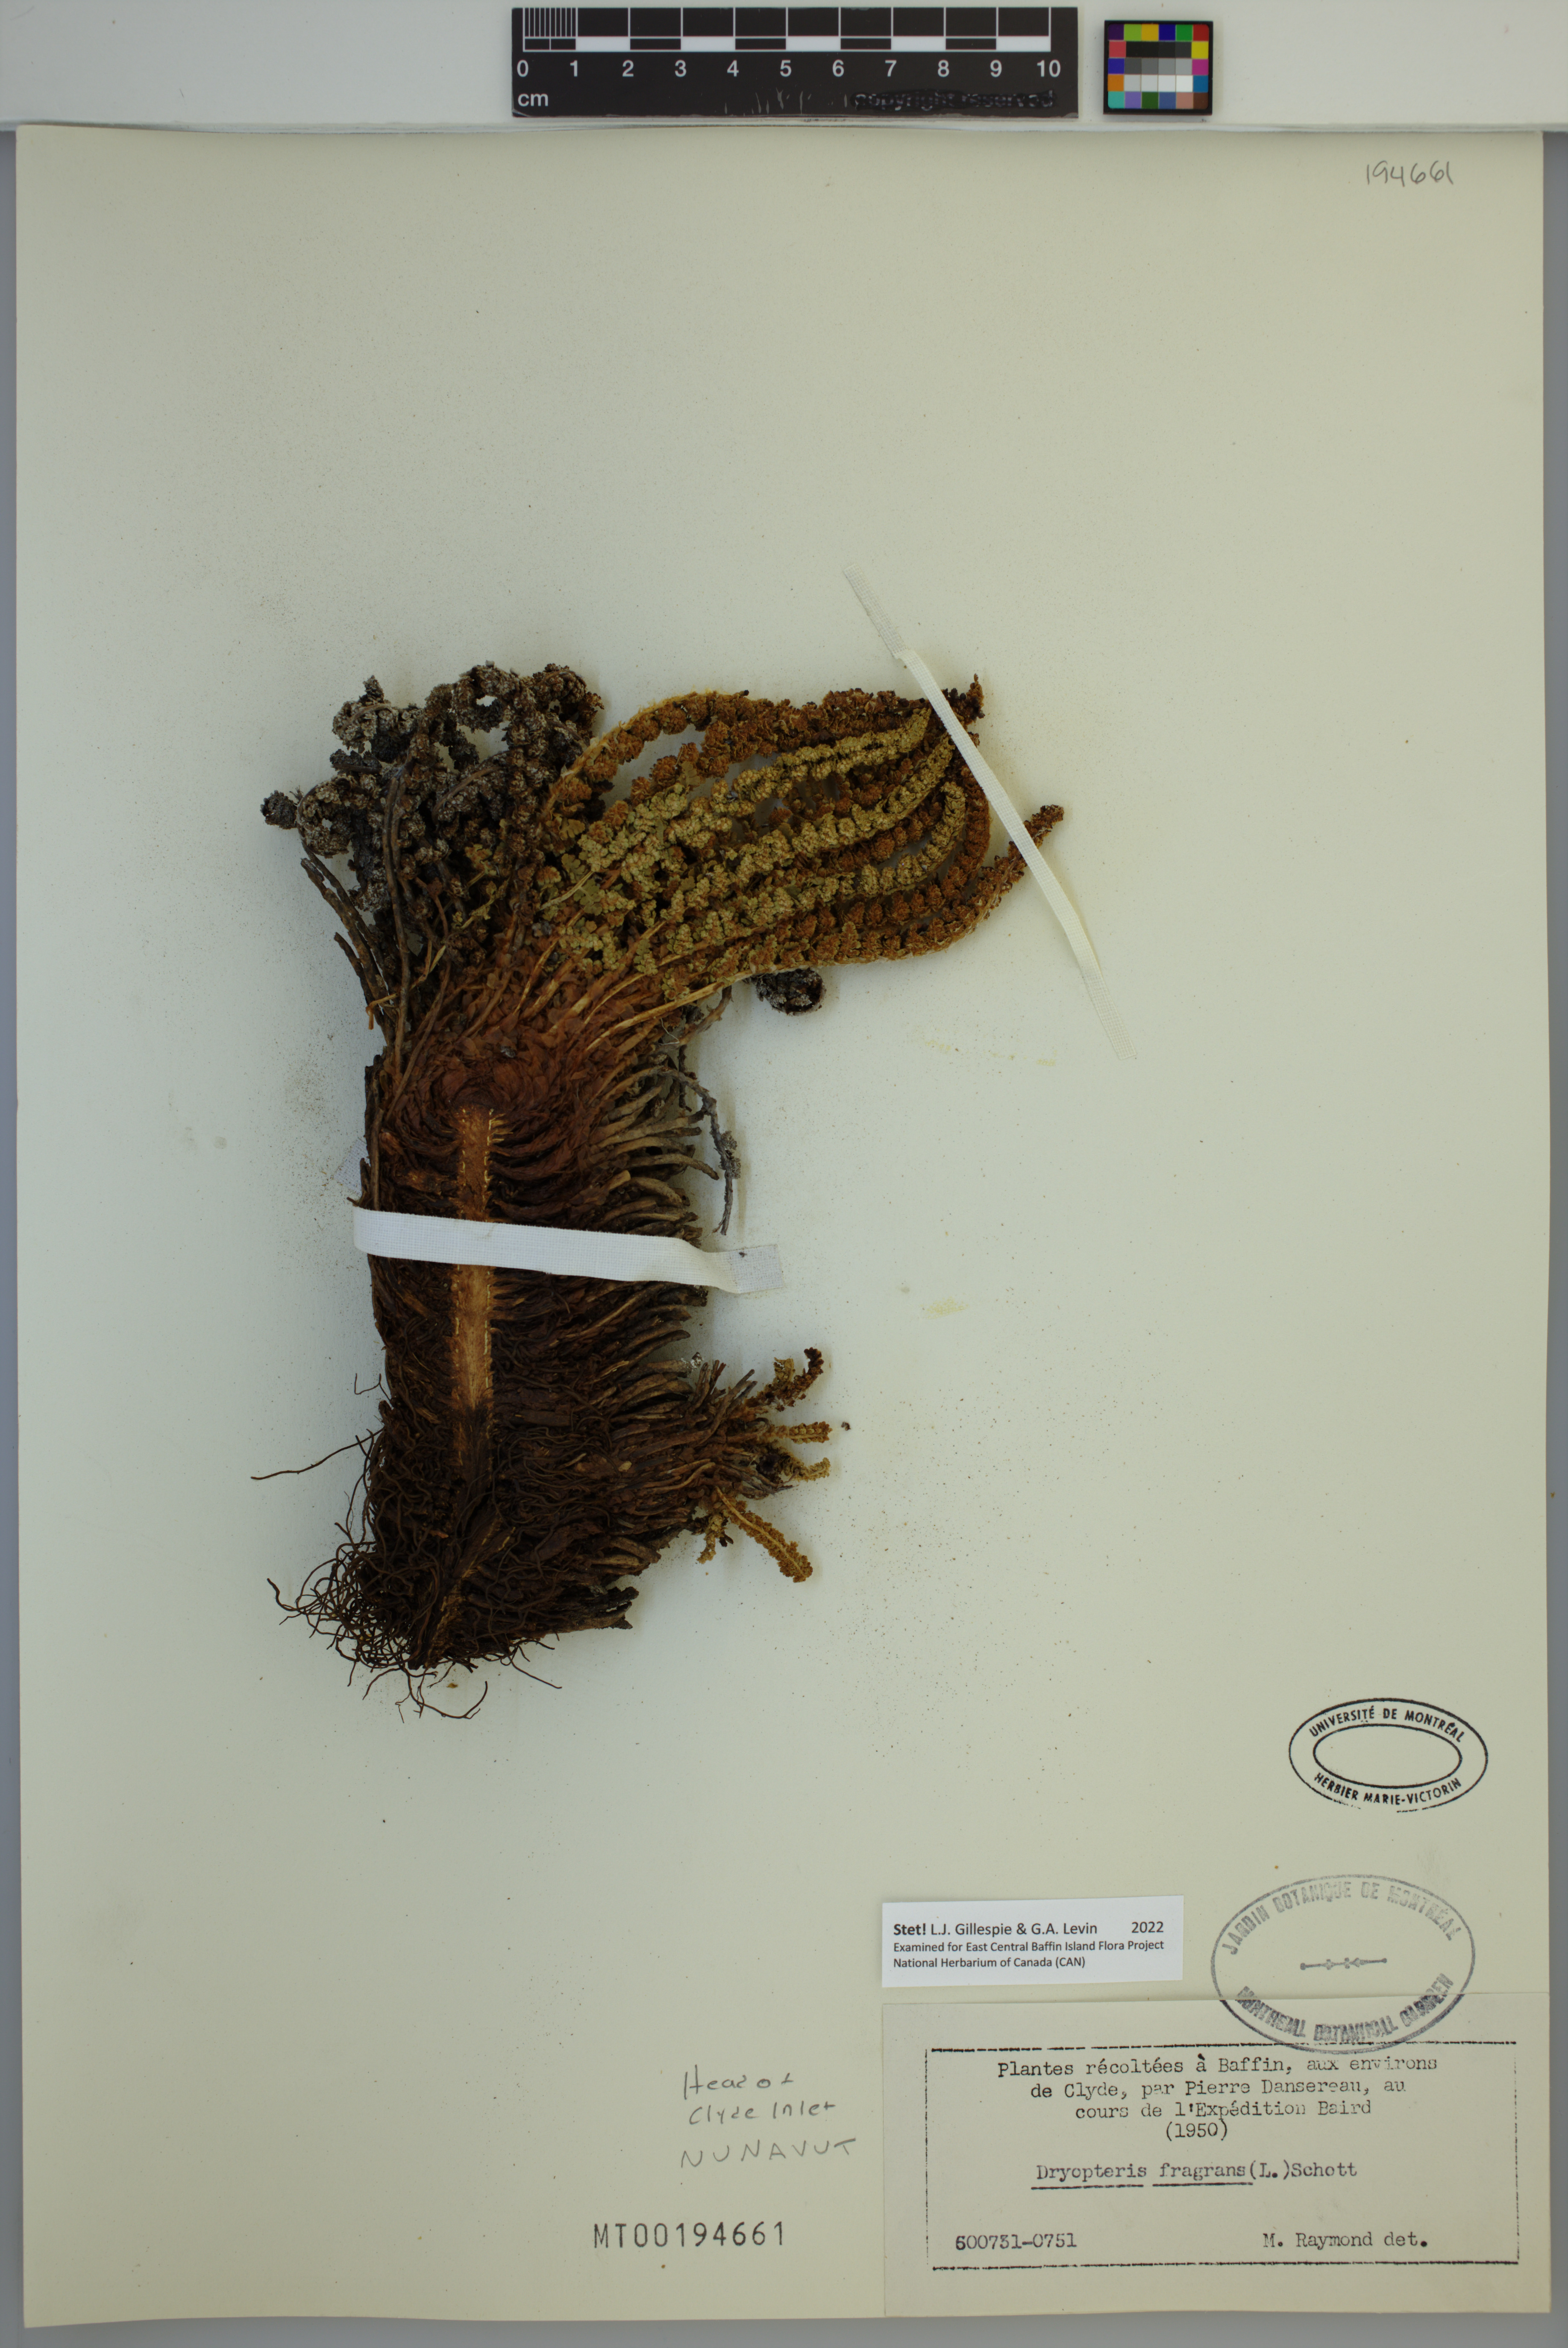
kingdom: Plantae
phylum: Tracheophyta
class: Polypodiopsida
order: Polypodiales
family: Dryopteridaceae
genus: Dryopteris
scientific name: Dryopteris fragrans
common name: Fragrant wood fern
